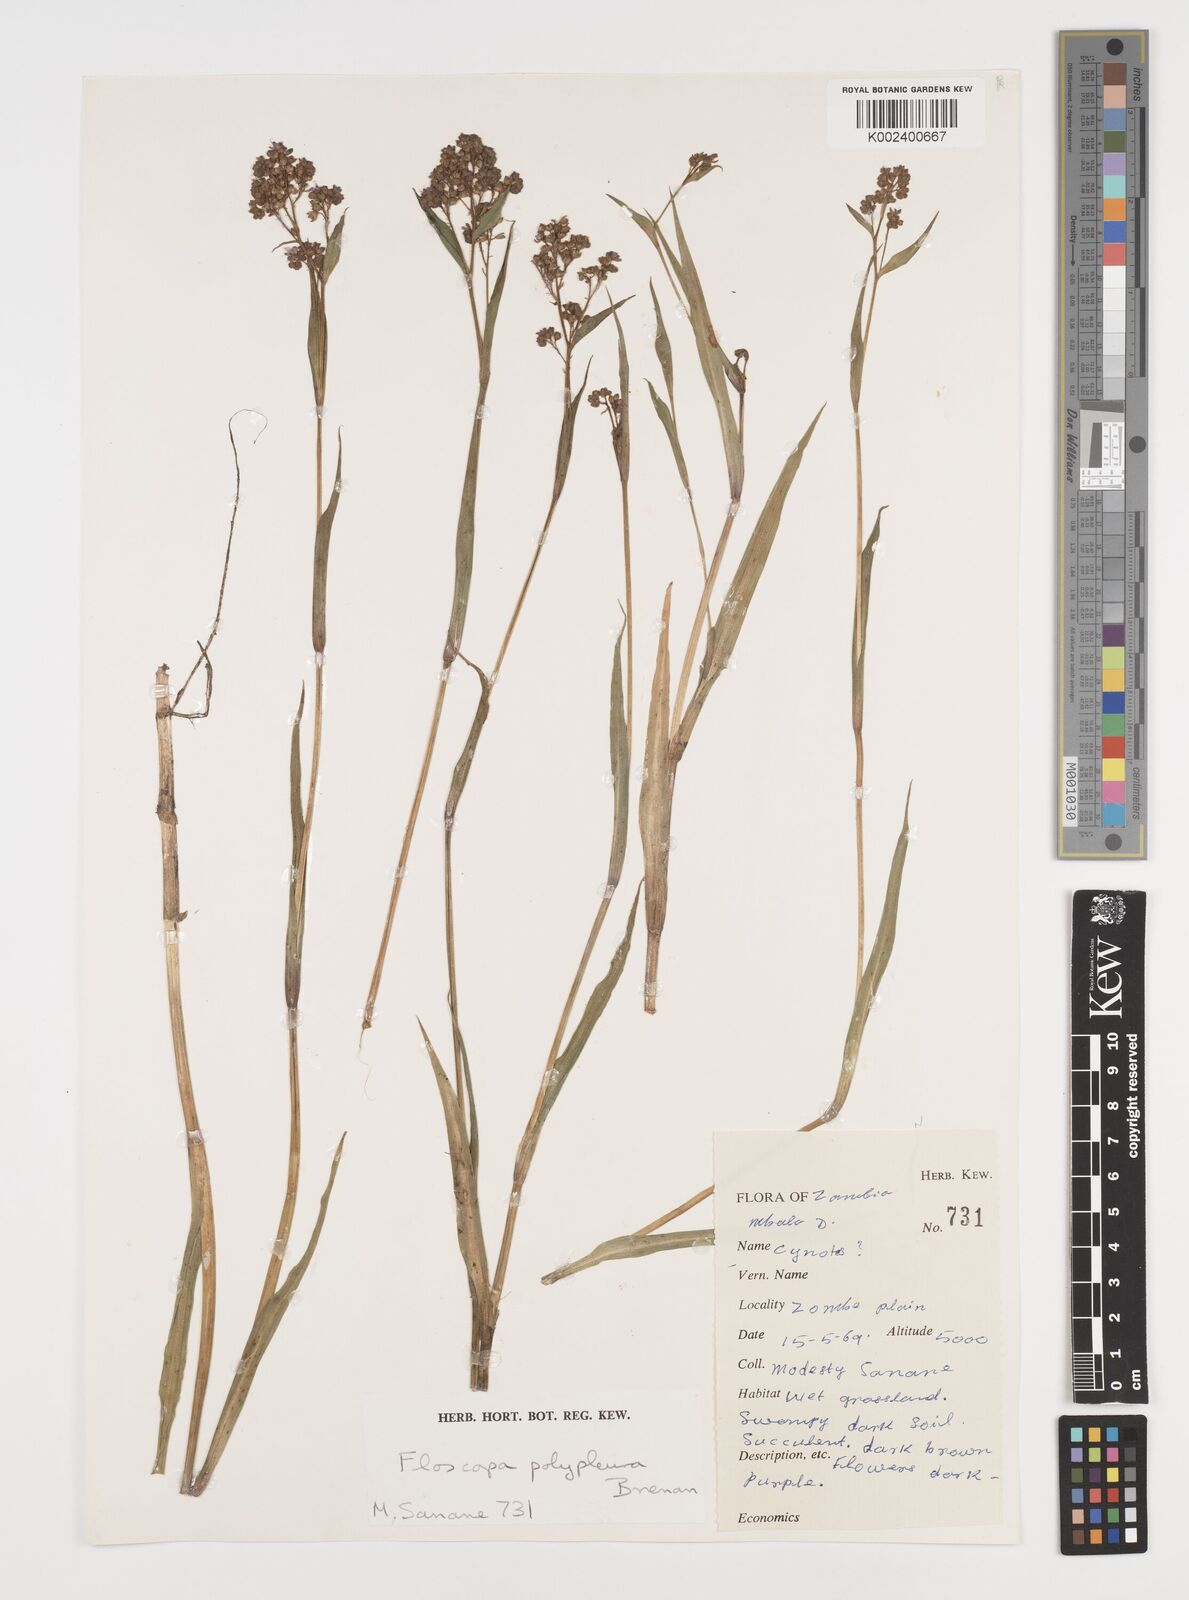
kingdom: Plantae
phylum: Tracheophyta
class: Liliopsida
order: Commelinales
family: Commelinaceae
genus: Floscopa
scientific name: Floscopa polypleura
